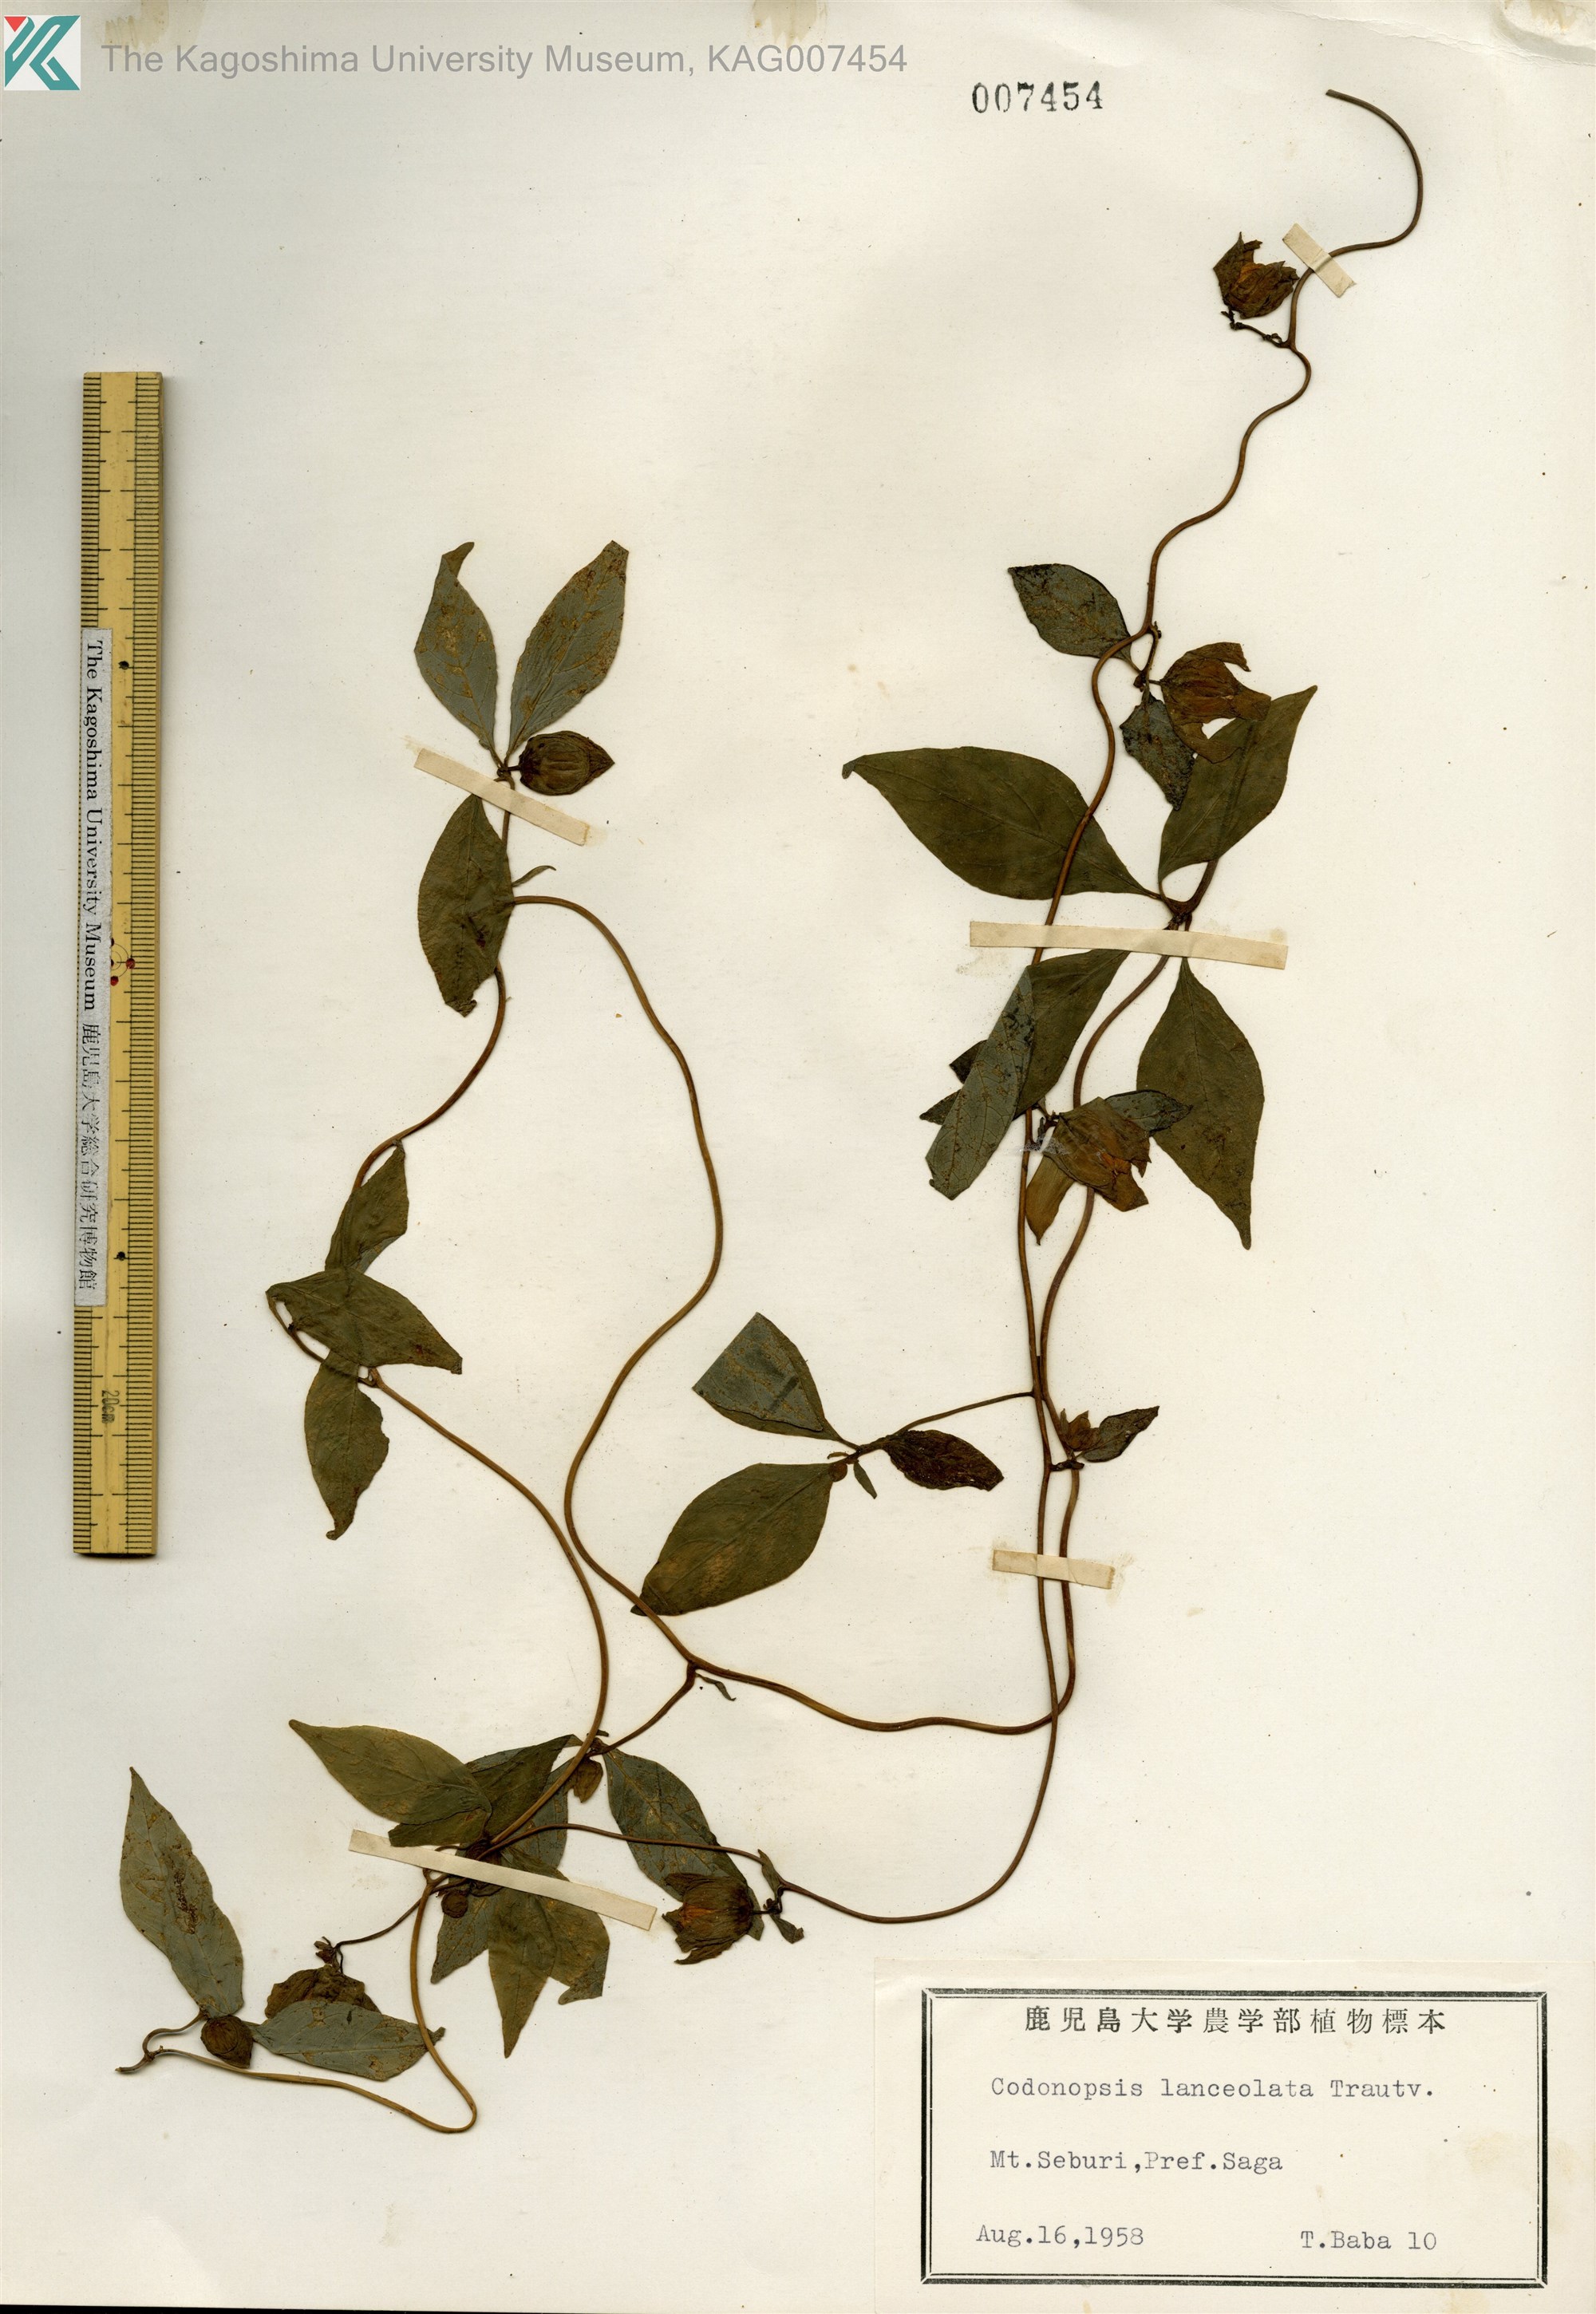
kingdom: Plantae
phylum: Tracheophyta
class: Magnoliopsida
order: Asterales
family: Campanulaceae
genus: Codonopsis
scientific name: Codonopsis lanceolata
